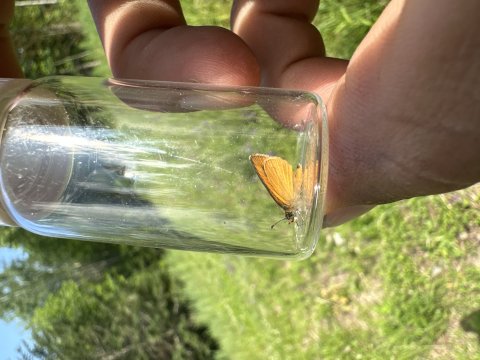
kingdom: Animalia
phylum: Arthropoda
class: Insecta
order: Lepidoptera
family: Hesperiidae
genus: Ancyloxypha
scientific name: Ancyloxypha numitor
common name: Least Skipper
